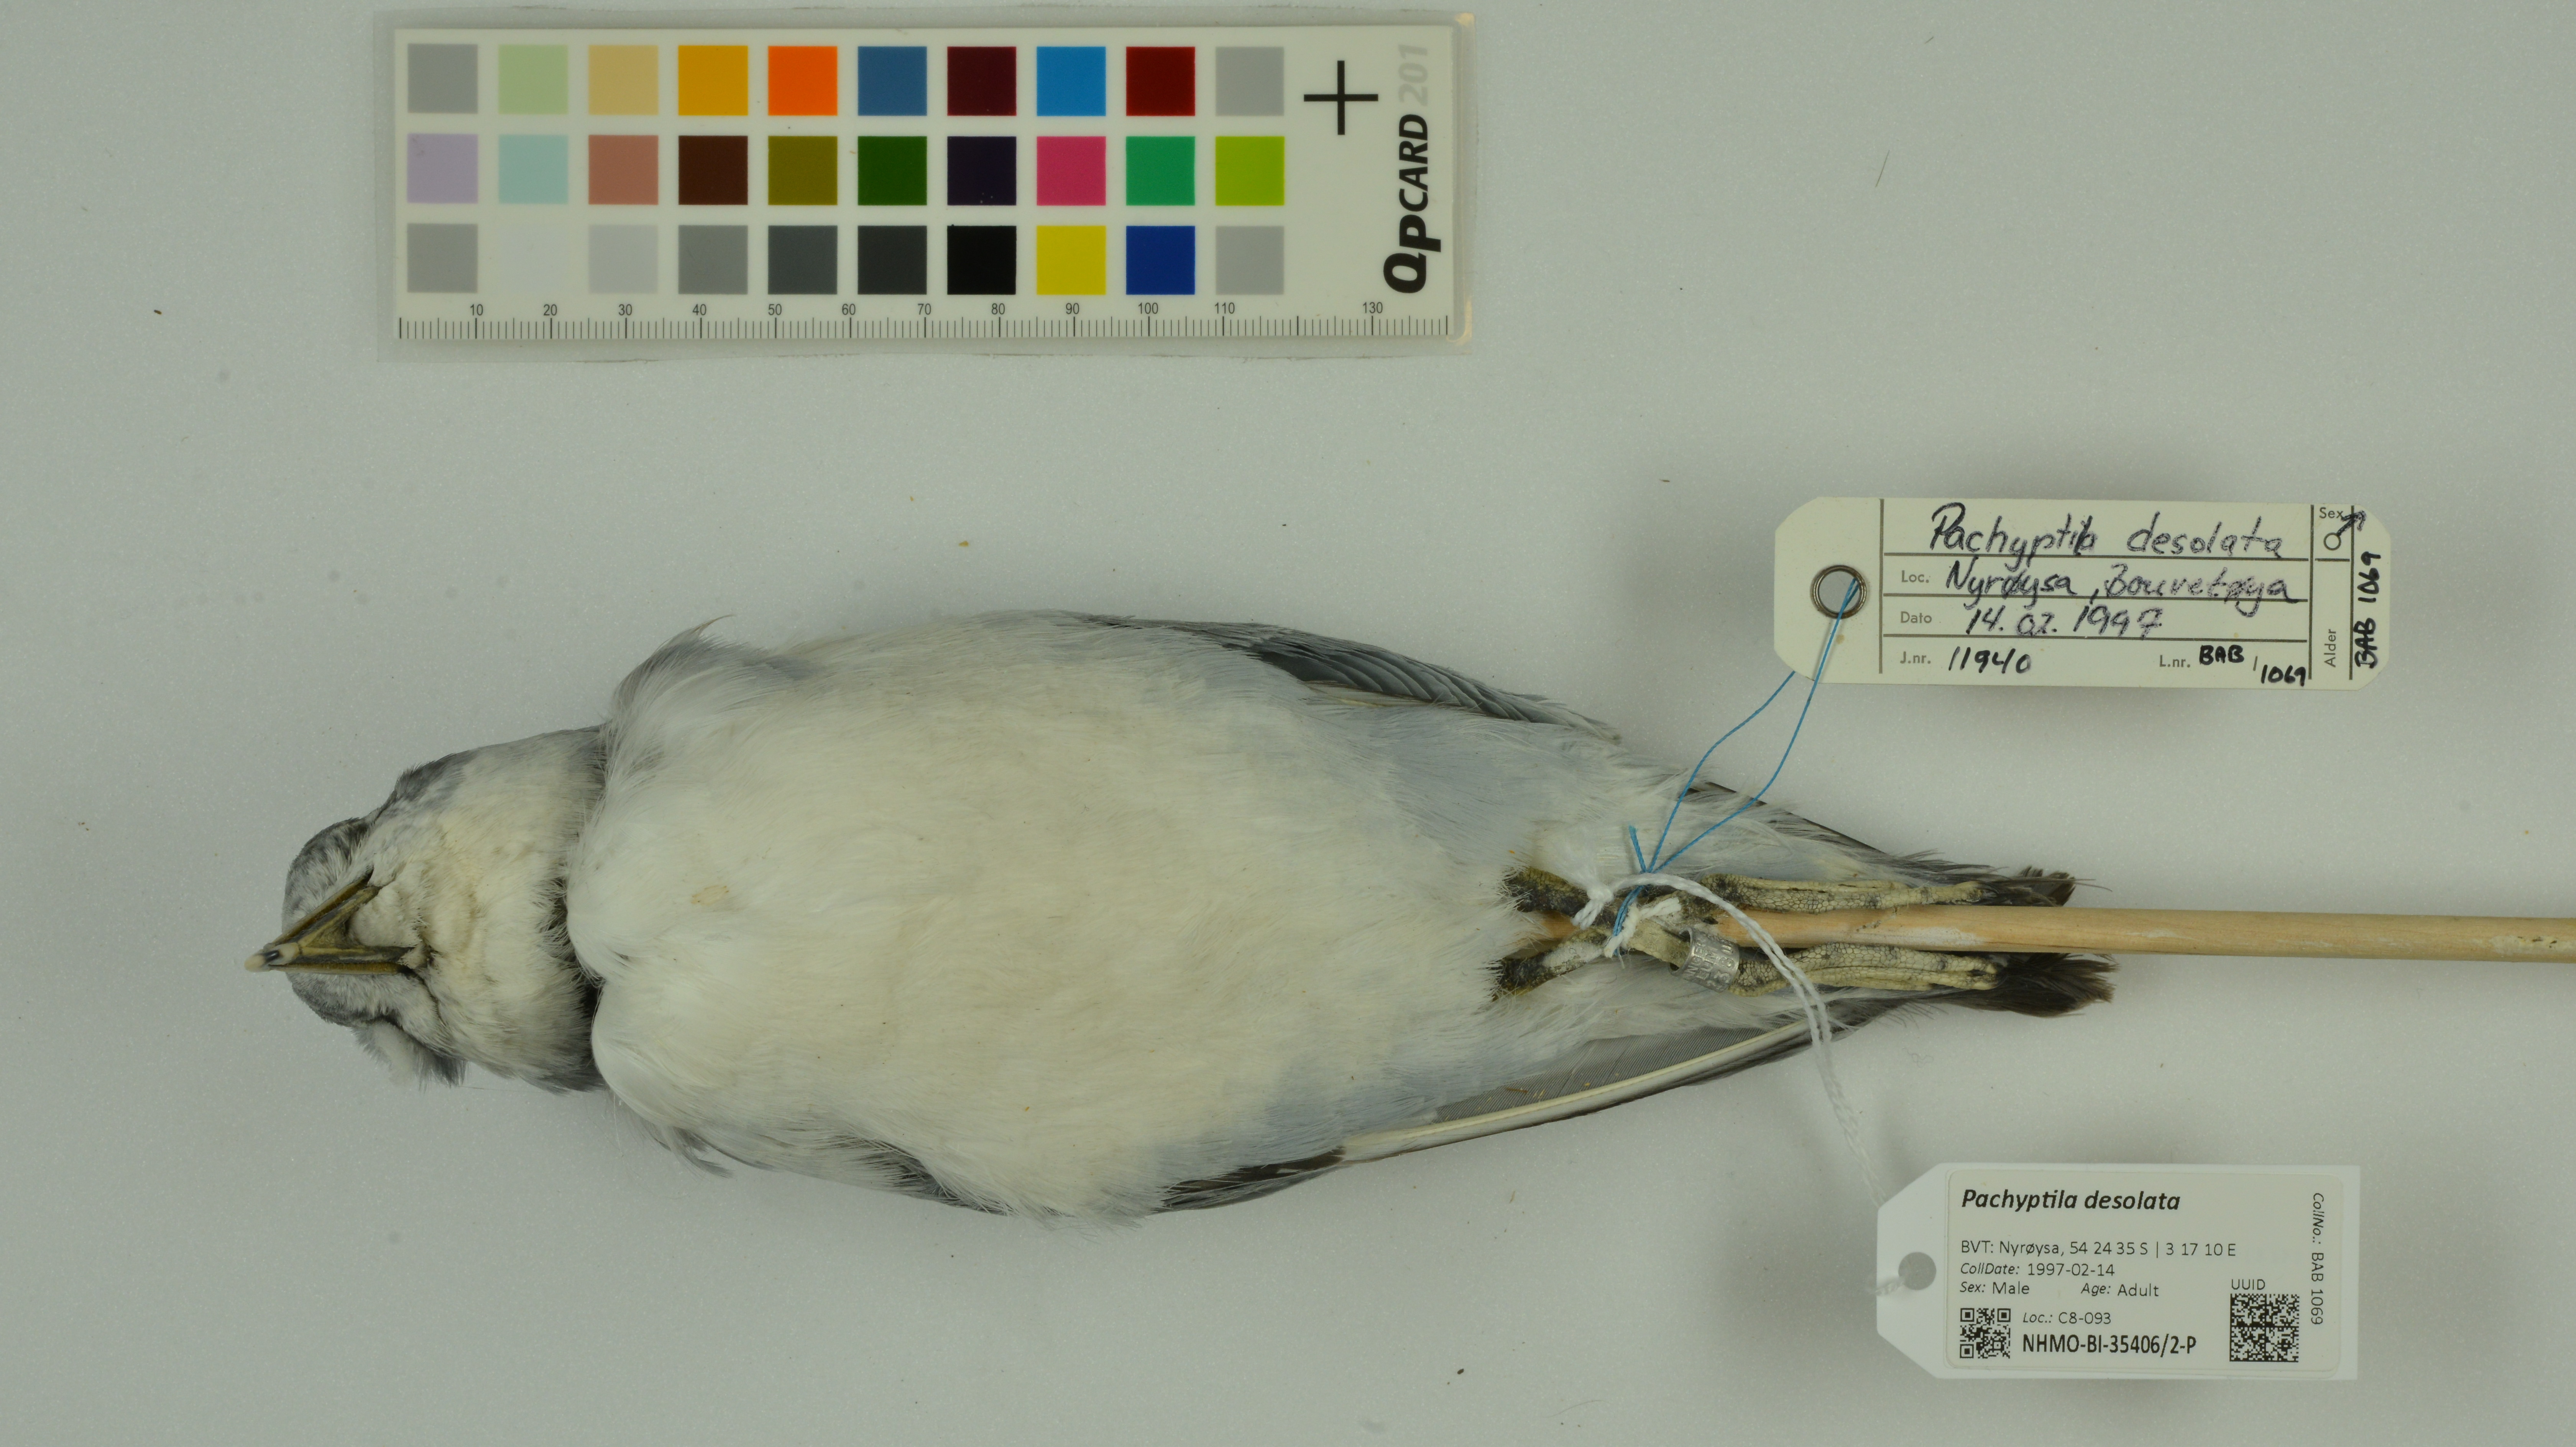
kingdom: Animalia
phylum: Chordata
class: Aves
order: Procellariiformes
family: Procellariidae
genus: Pachyptila
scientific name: Pachyptila desolata
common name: Antarctic prion
